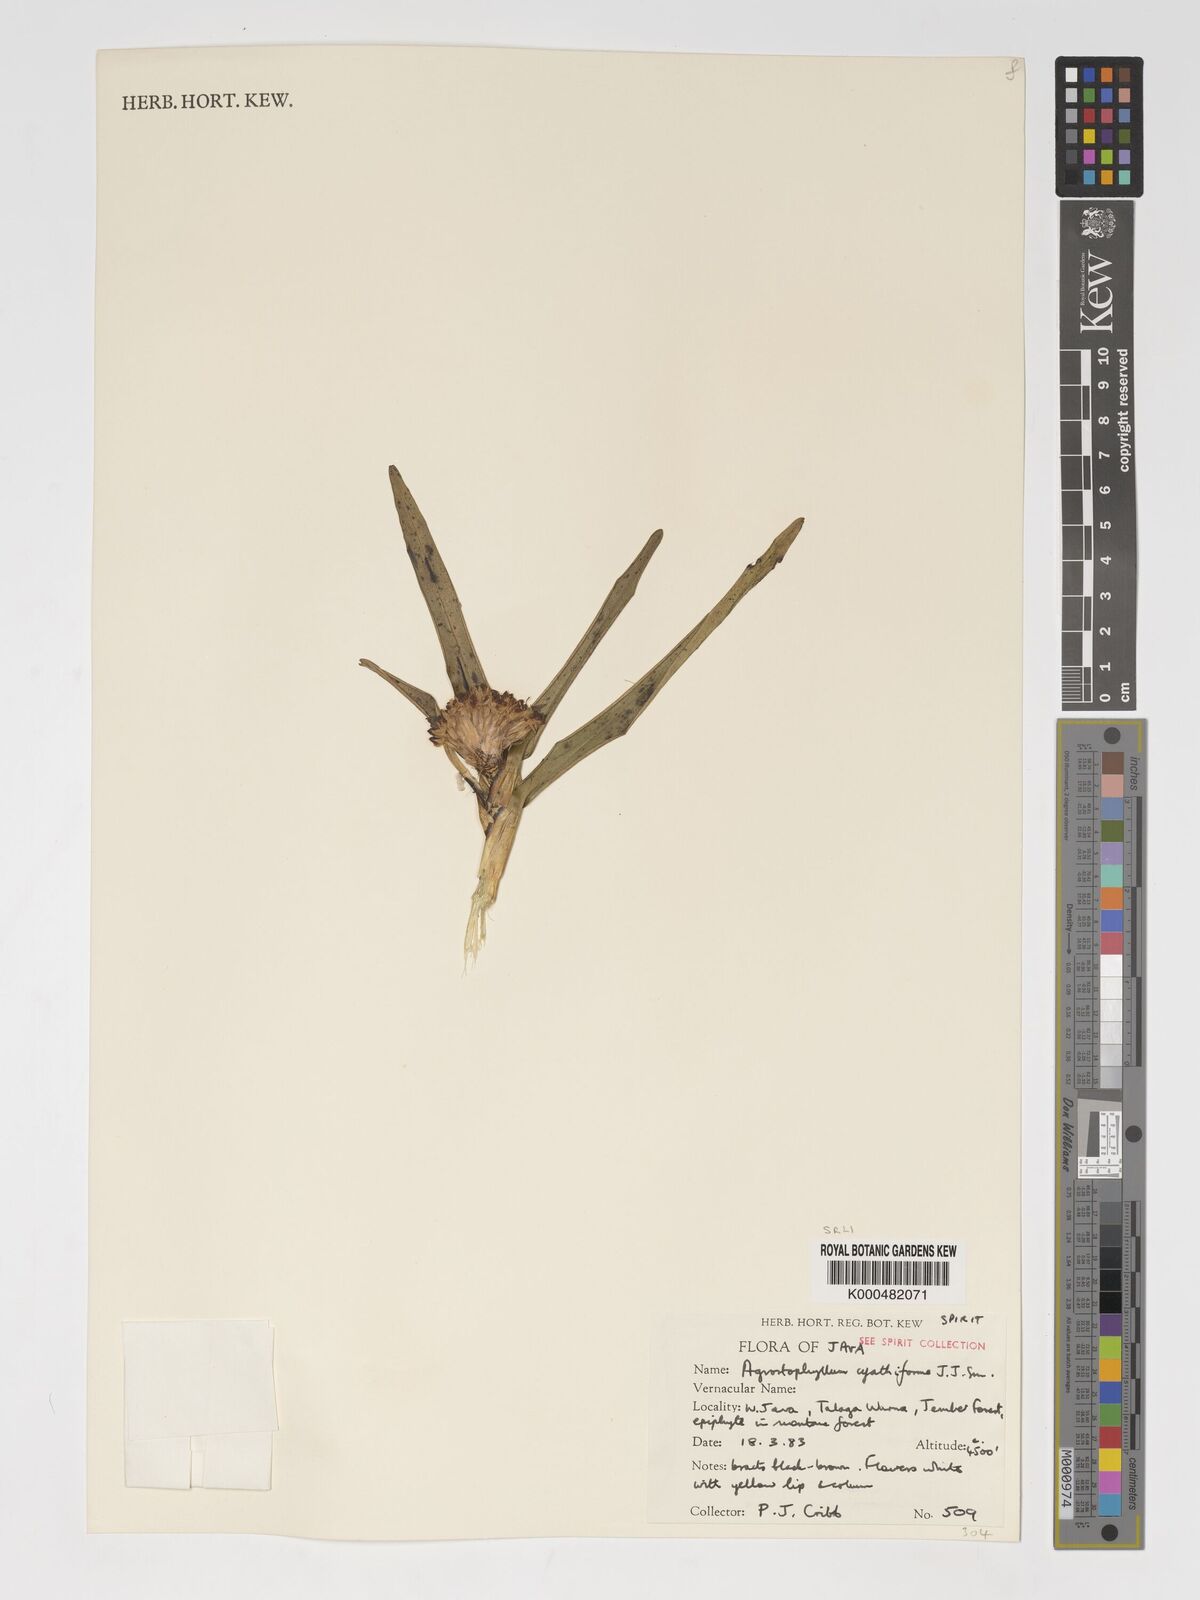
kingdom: Plantae
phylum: Tracheophyta
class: Liliopsida
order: Asparagales
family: Orchidaceae
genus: Agrostophyllum
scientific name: Agrostophyllum cyathiforme
